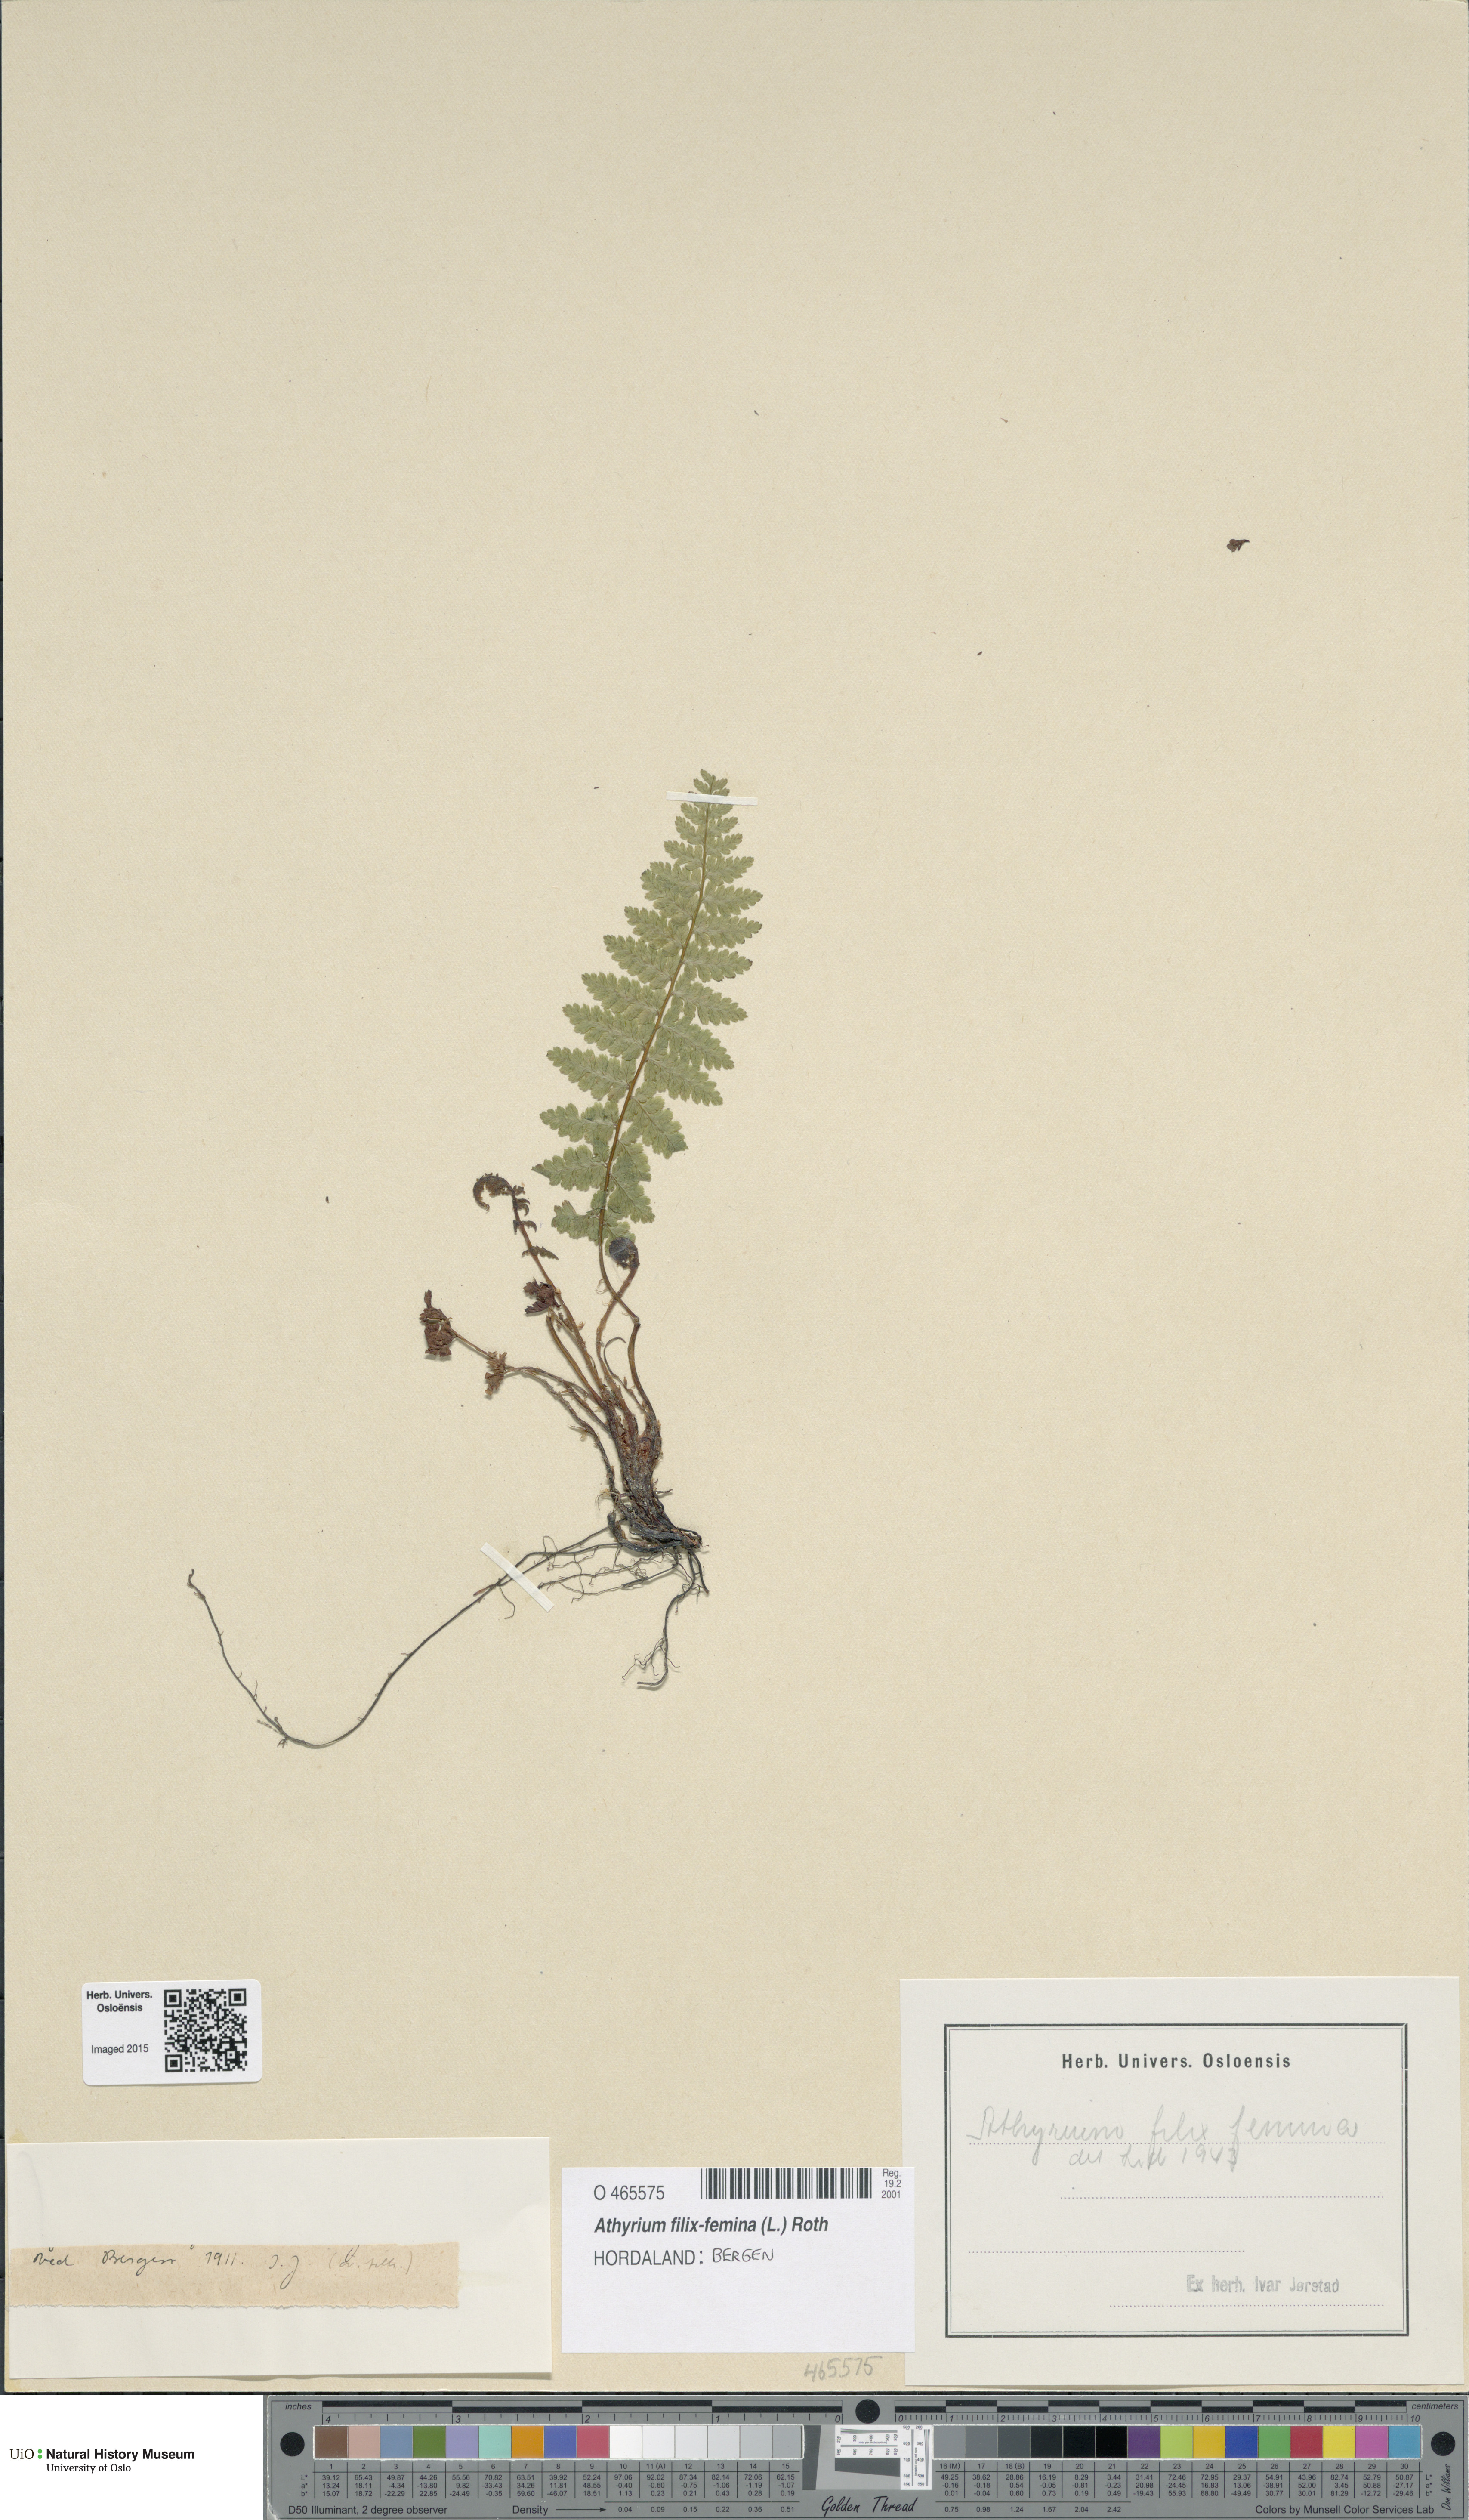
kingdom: Plantae
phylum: Tracheophyta
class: Polypodiopsida
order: Polypodiales
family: Athyriaceae
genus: Athyrium
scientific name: Athyrium filix-femina
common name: Lady fern
